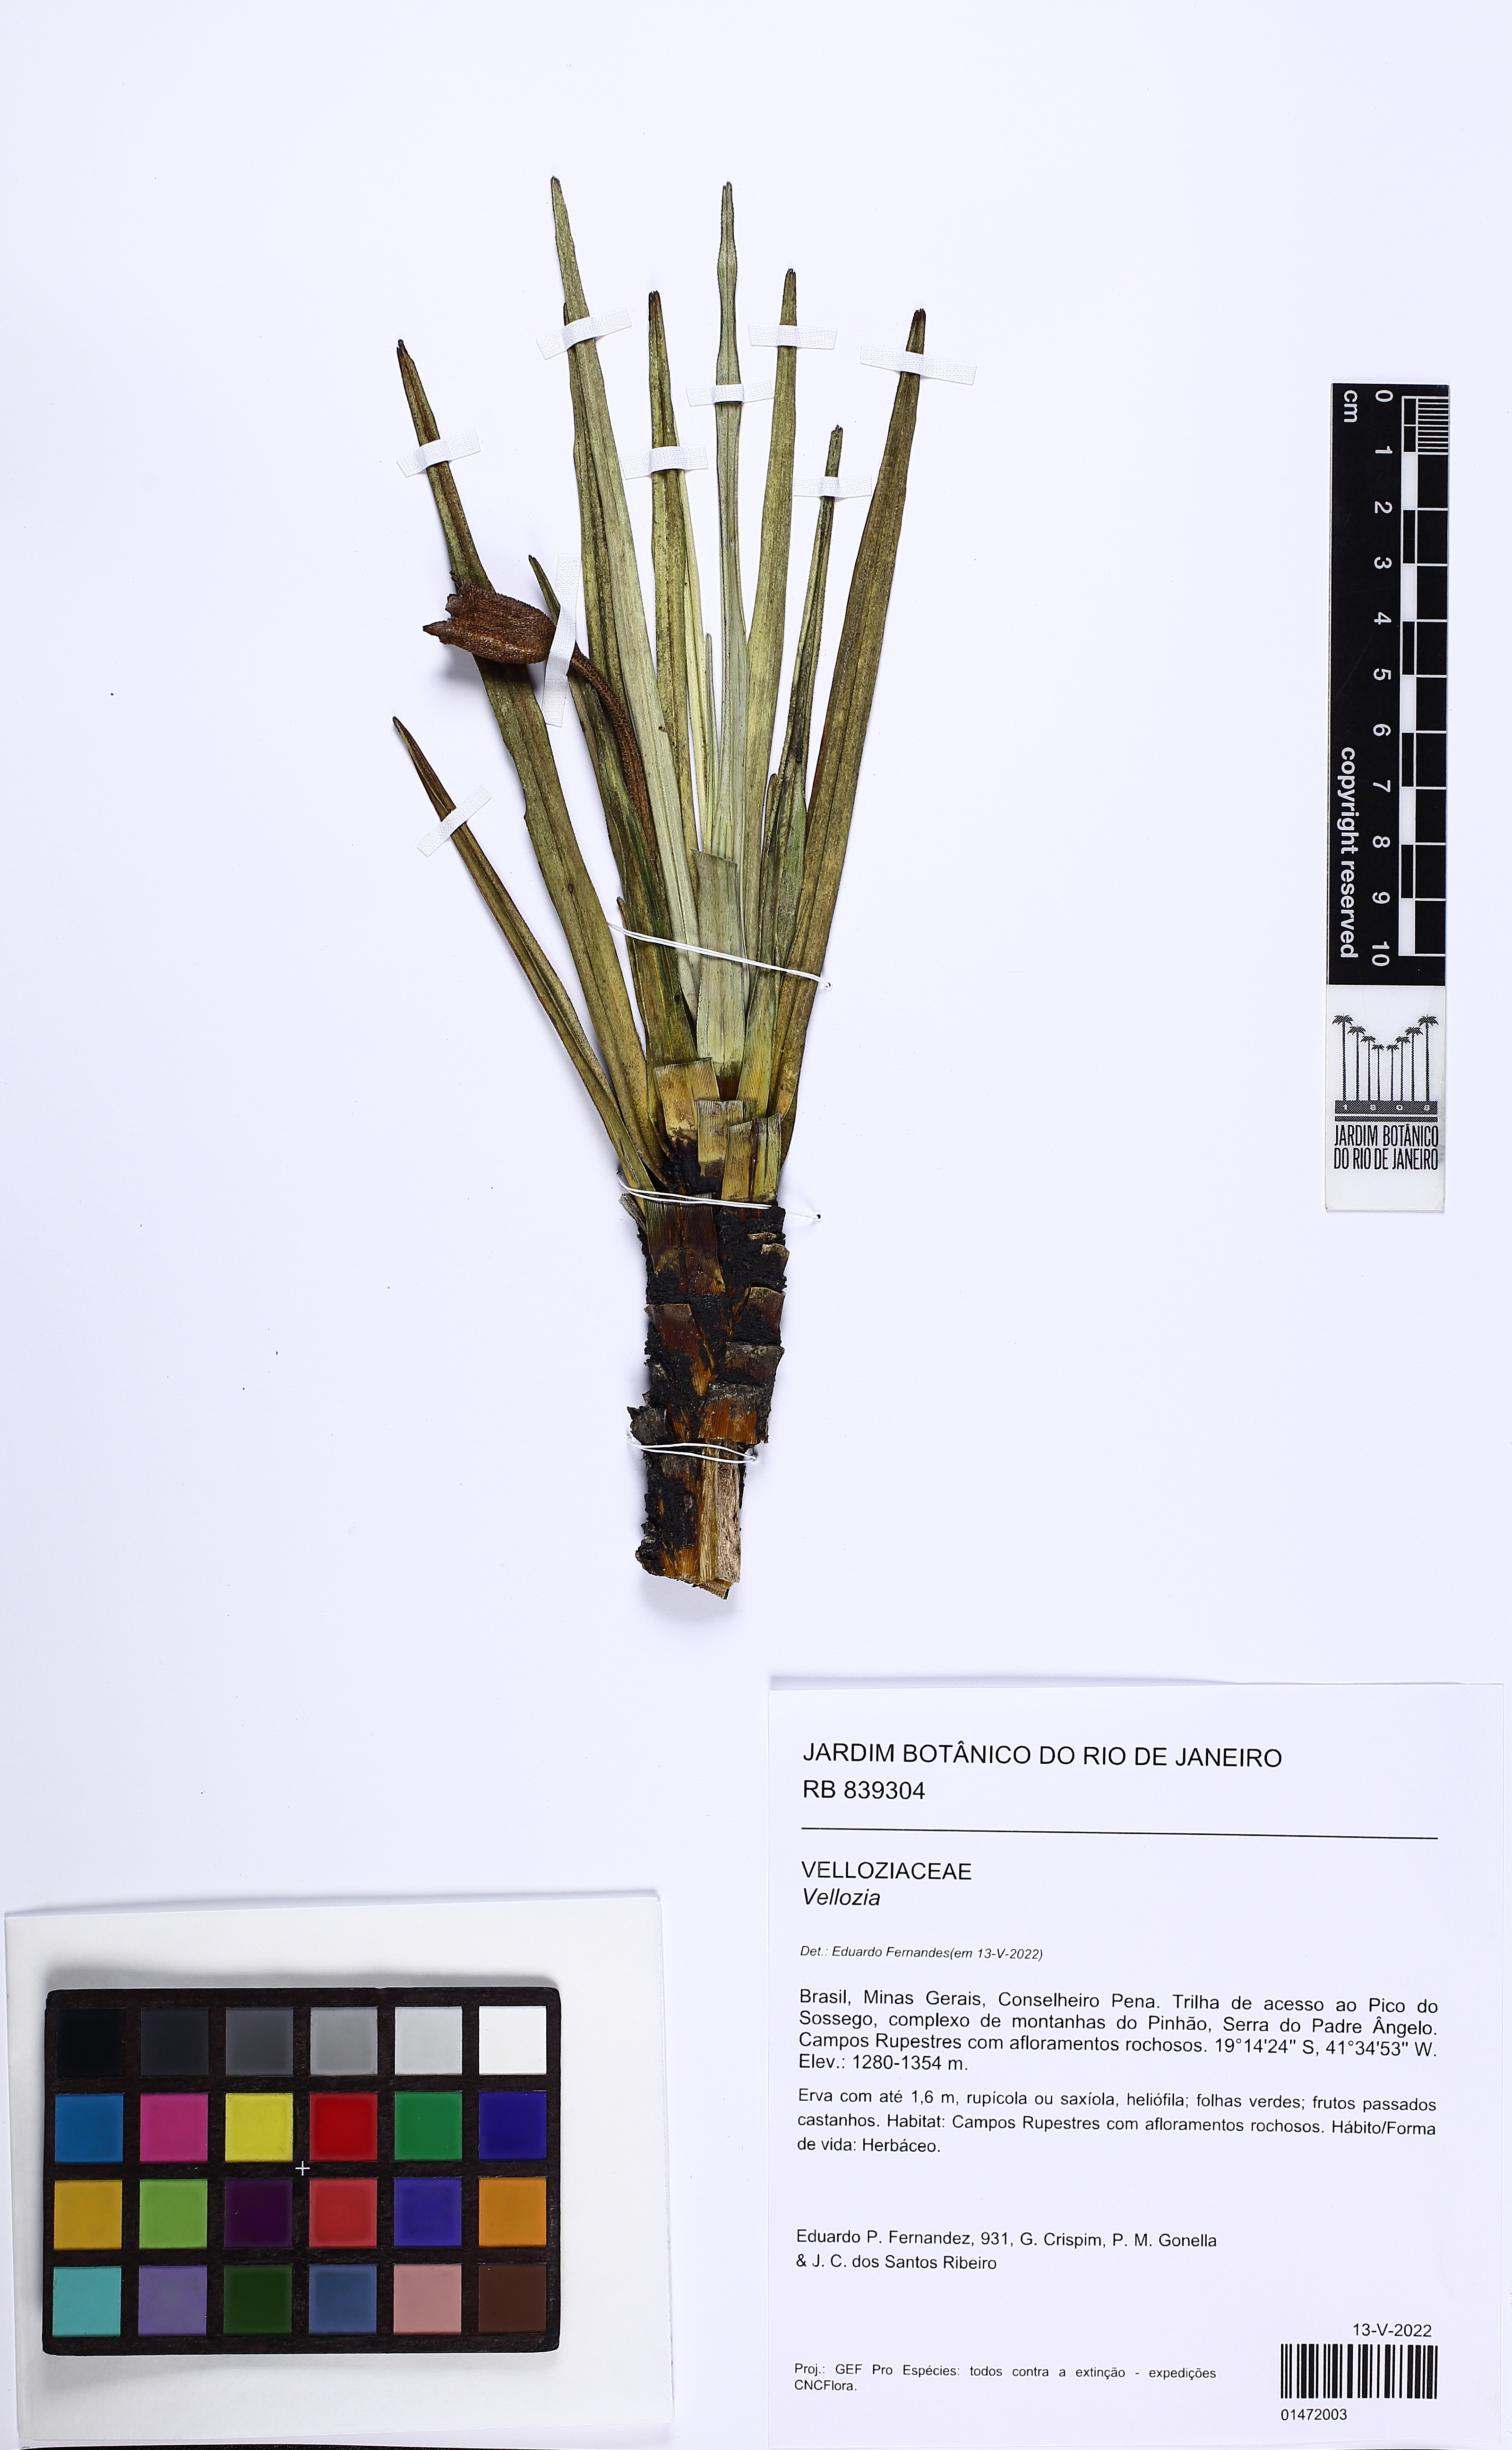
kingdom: Plantae
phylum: Tracheophyta
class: Liliopsida
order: Pandanales
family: Velloziaceae
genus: Vellozia
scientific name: Vellozia
